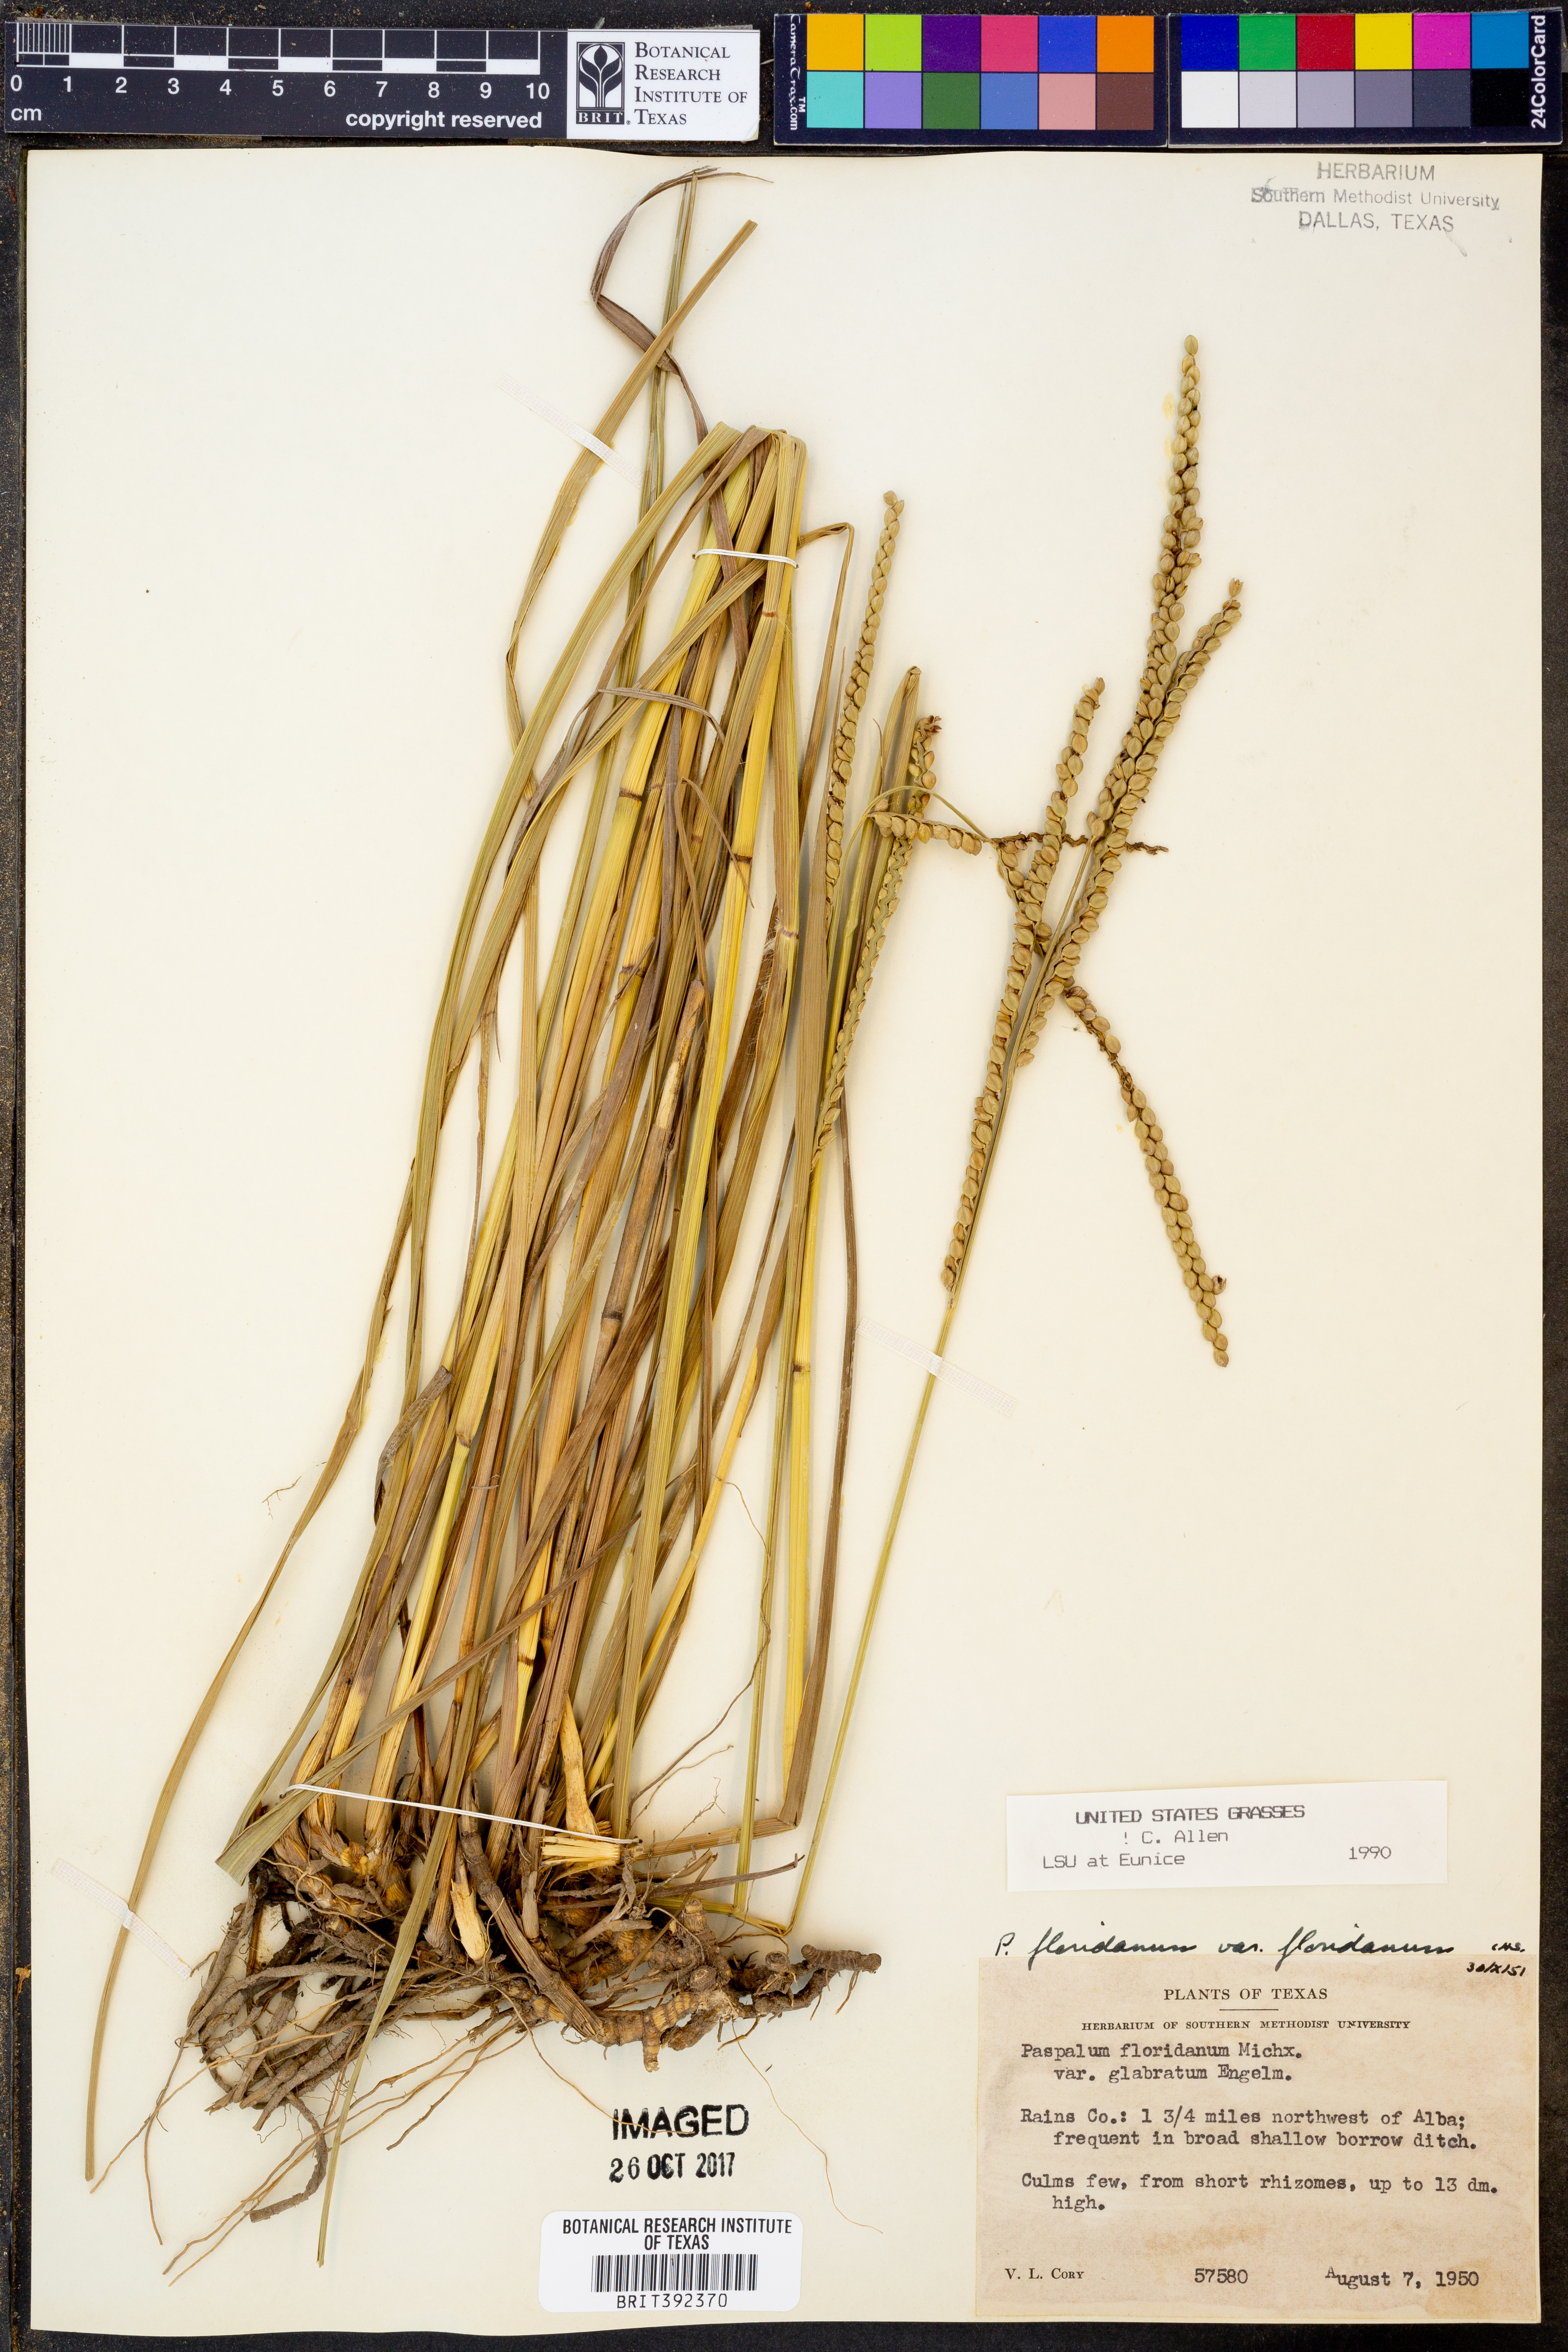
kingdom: Plantae
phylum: Tracheophyta
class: Liliopsida
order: Poales
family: Poaceae
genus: Paspalum
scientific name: Paspalum floridanum
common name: Florida paspalum
